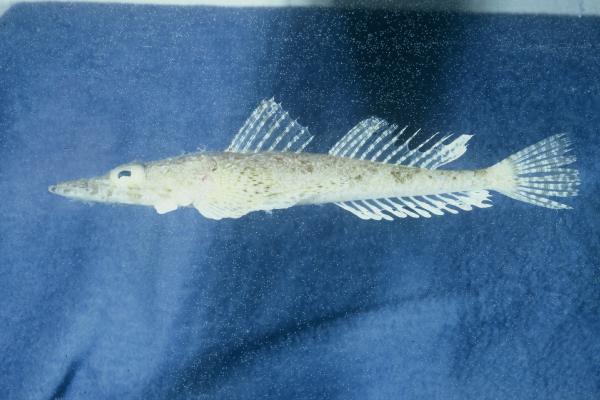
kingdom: Animalia
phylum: Chordata
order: Scorpaeniformes
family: Platycephalidae
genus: Thysanophrys
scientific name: Thysanophrys chiltonae
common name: Longsnout flathead
